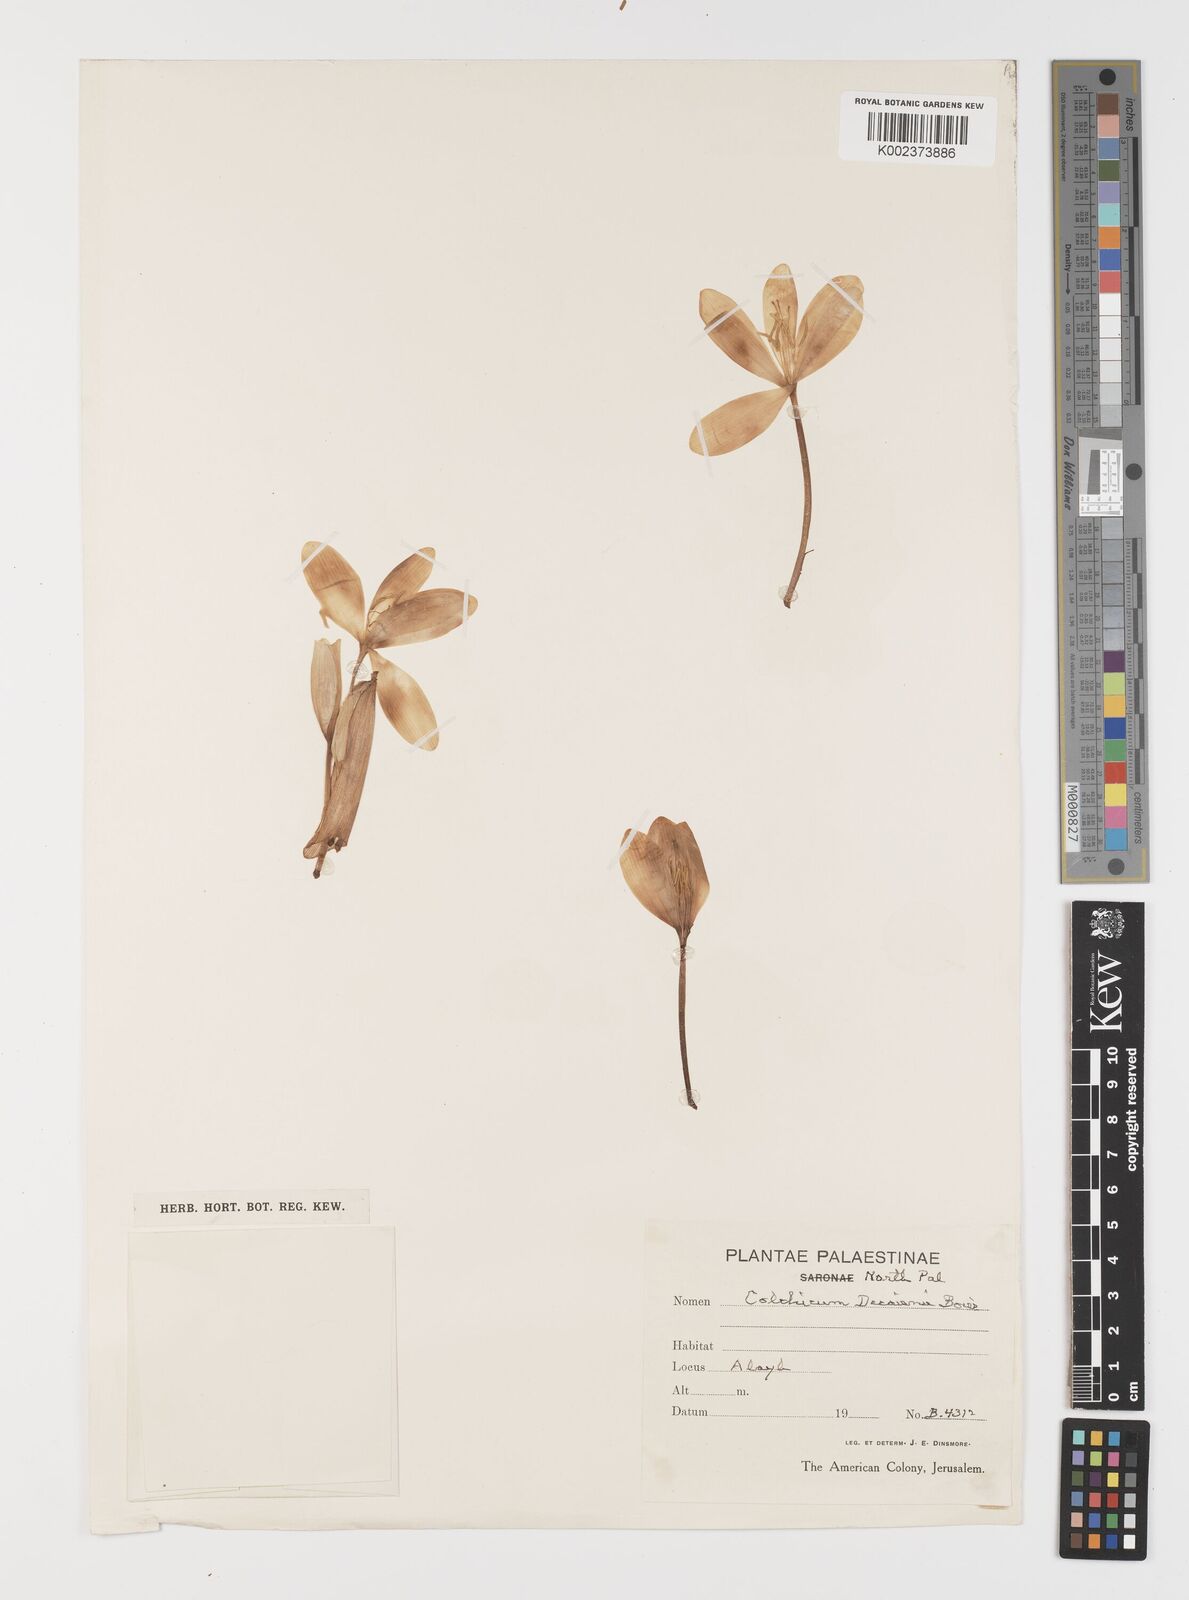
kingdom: Plantae
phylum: Tracheophyta
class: Liliopsida
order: Liliales
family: Colchicaceae
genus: Colchicum
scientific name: Colchicum decaisnei
